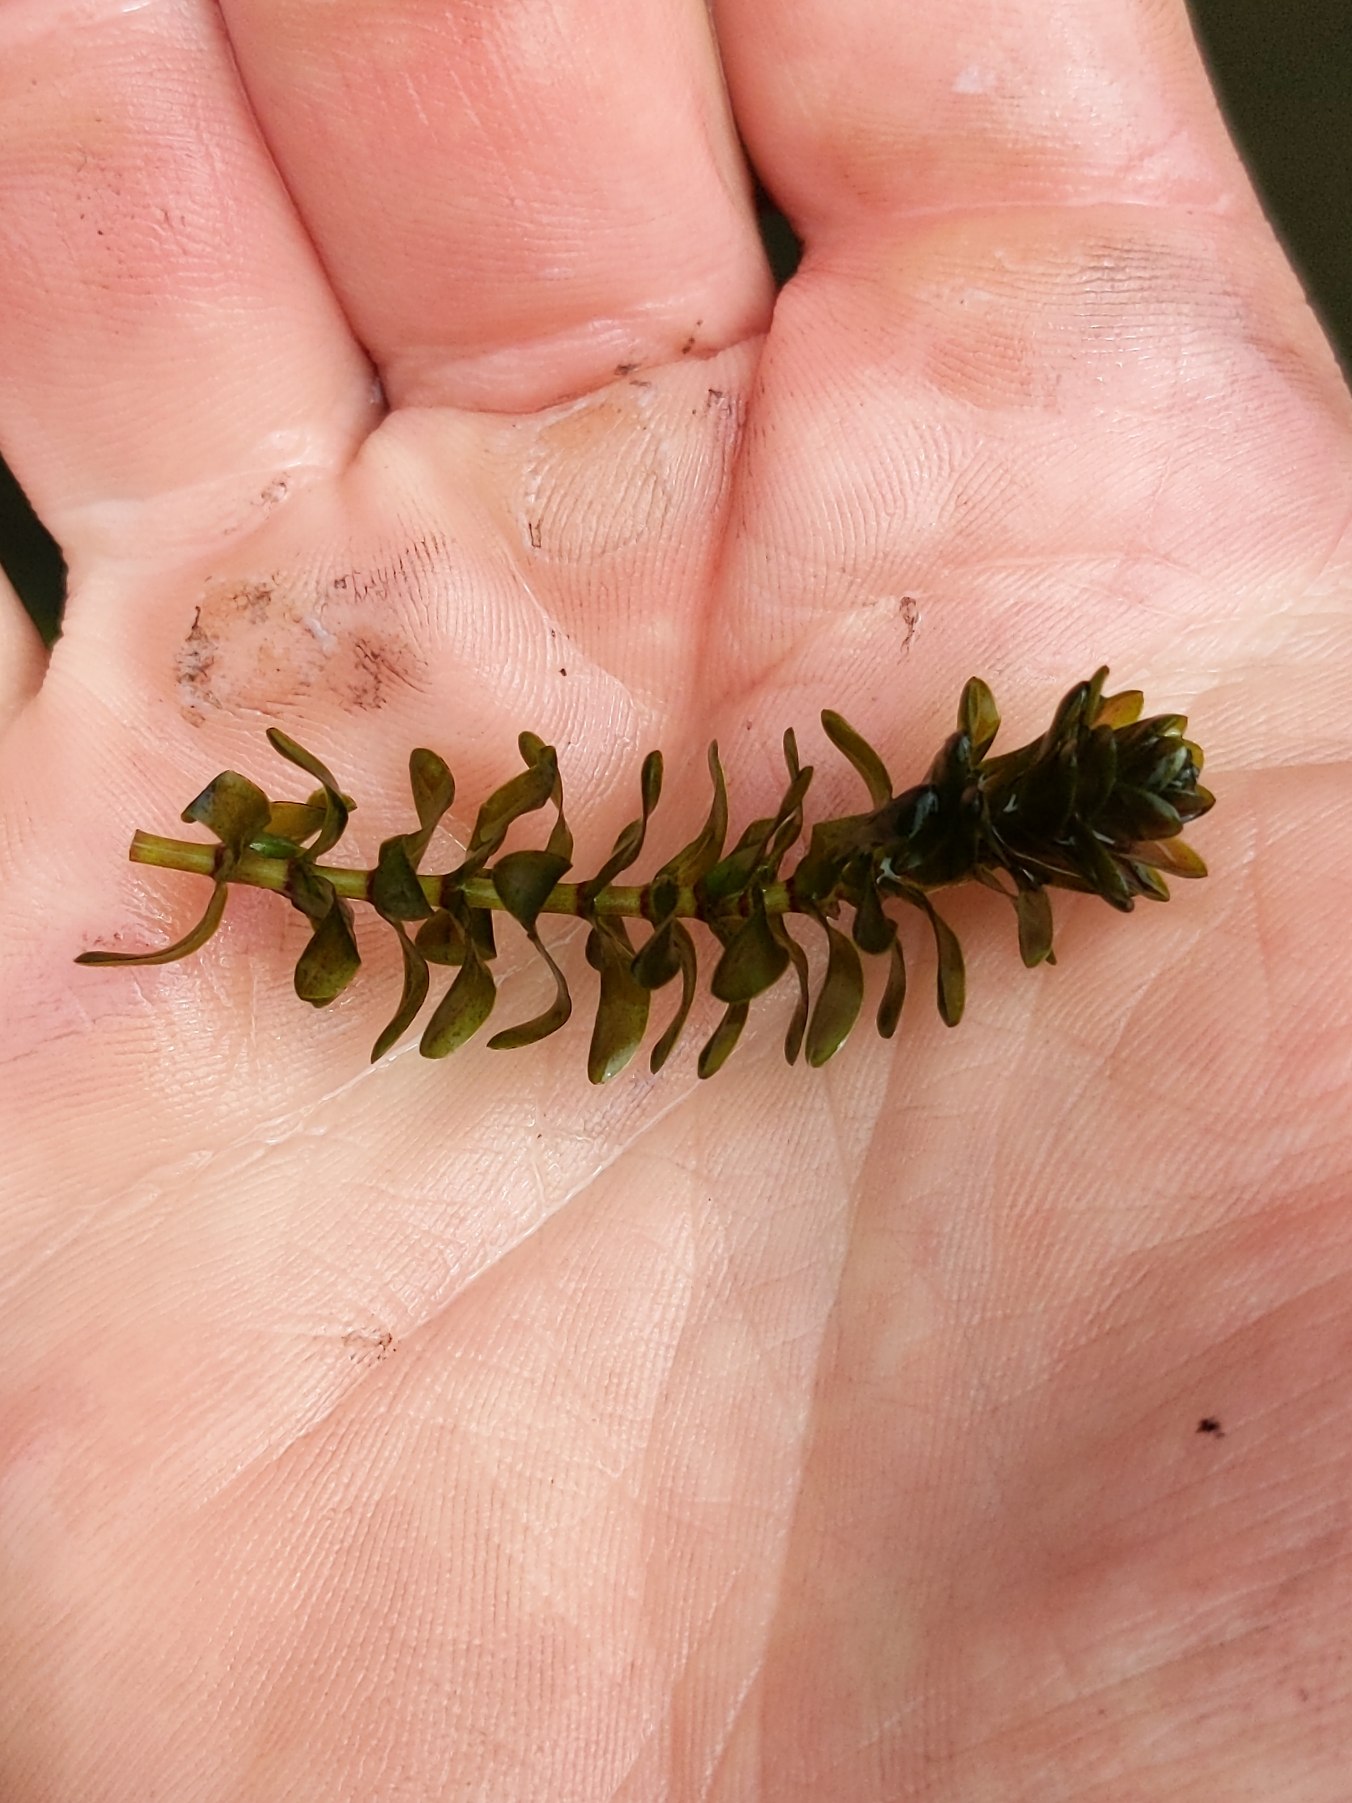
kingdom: Plantae
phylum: Tracheophyta
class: Liliopsida
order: Alismatales
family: Hydrocharitaceae
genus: Elodea
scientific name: Elodea canadensis
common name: Vandpest
